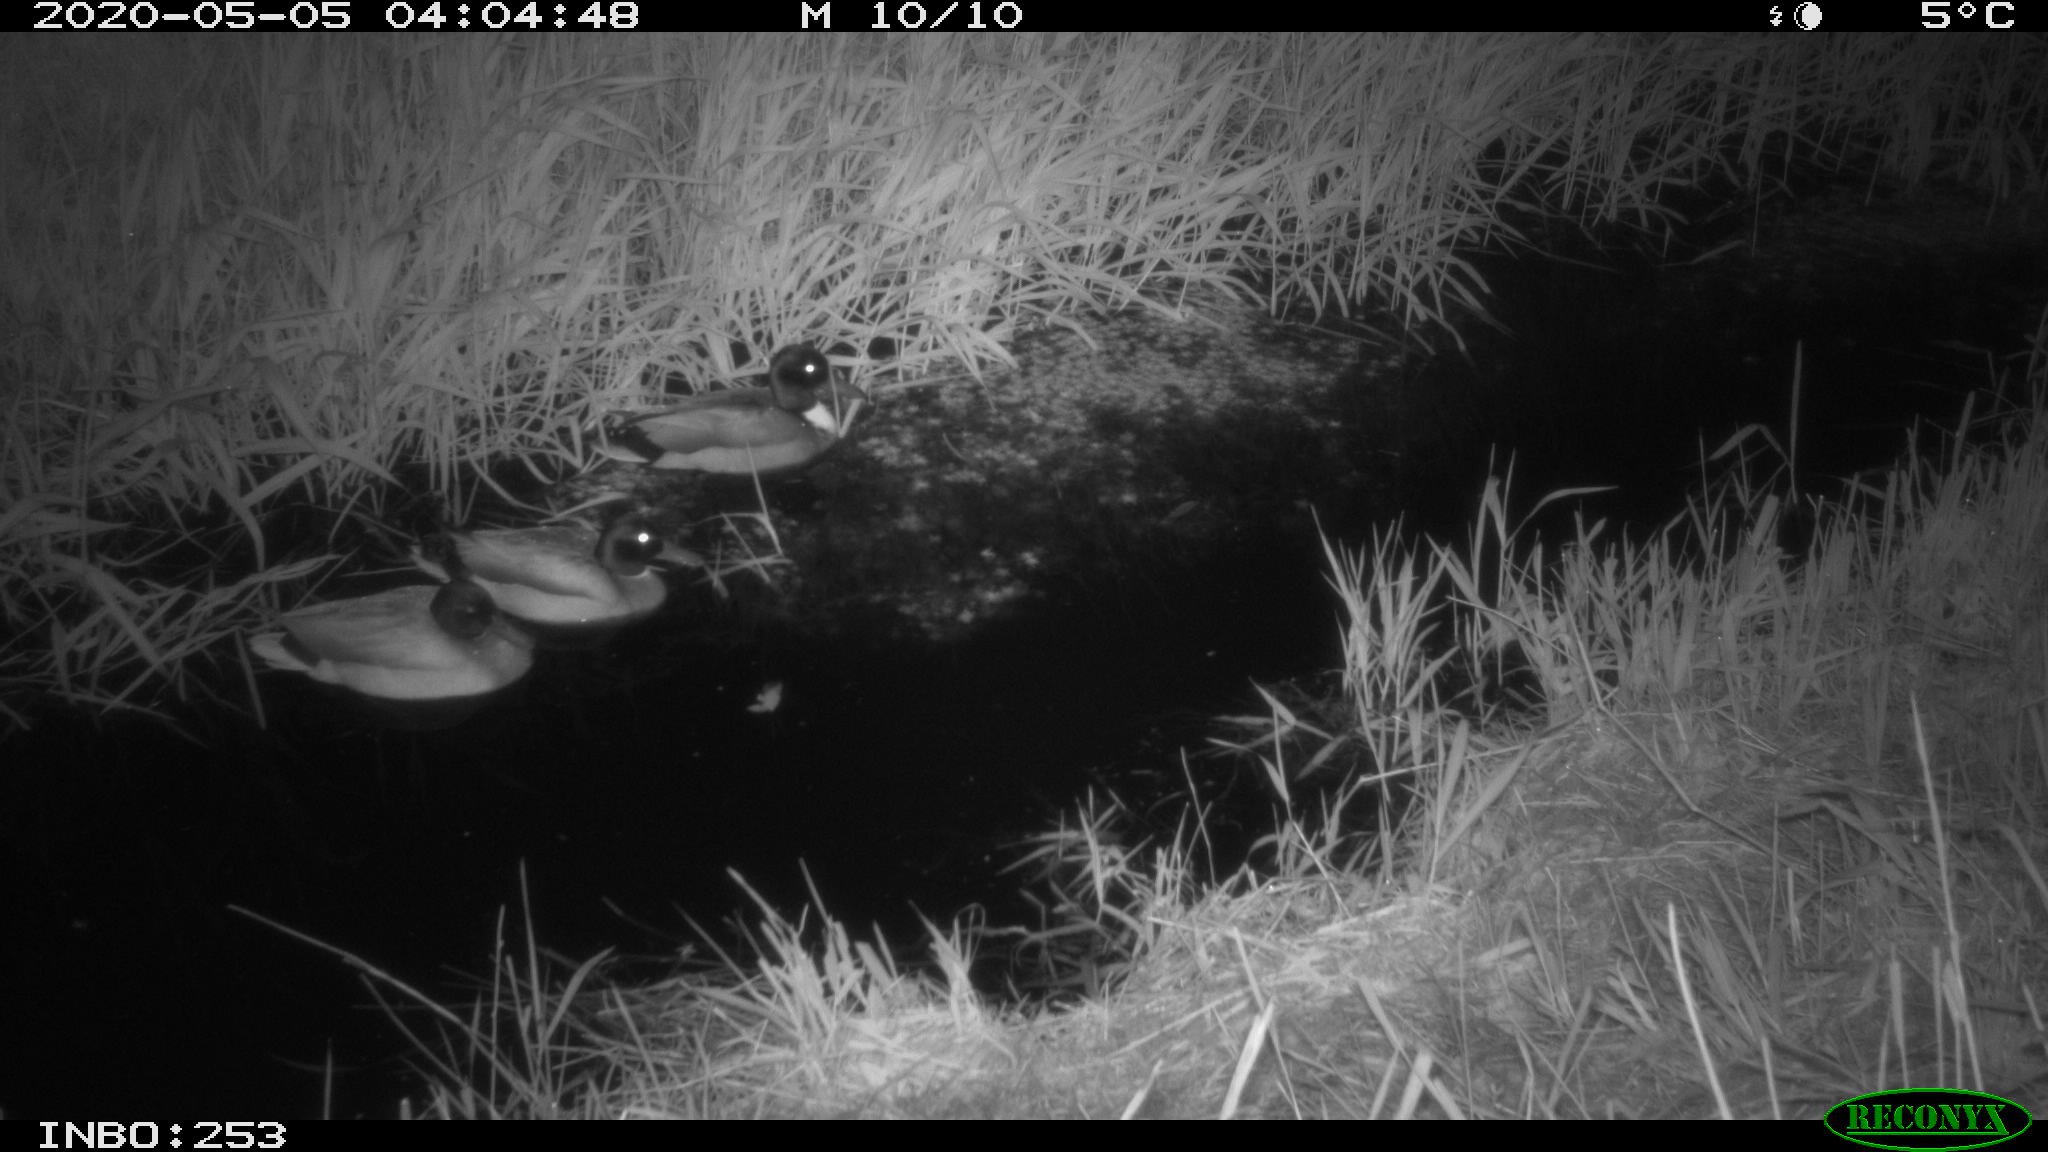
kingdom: Animalia
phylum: Chordata
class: Aves
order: Anseriformes
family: Anatidae
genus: Anas
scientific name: Anas platyrhynchos
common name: Mallard
